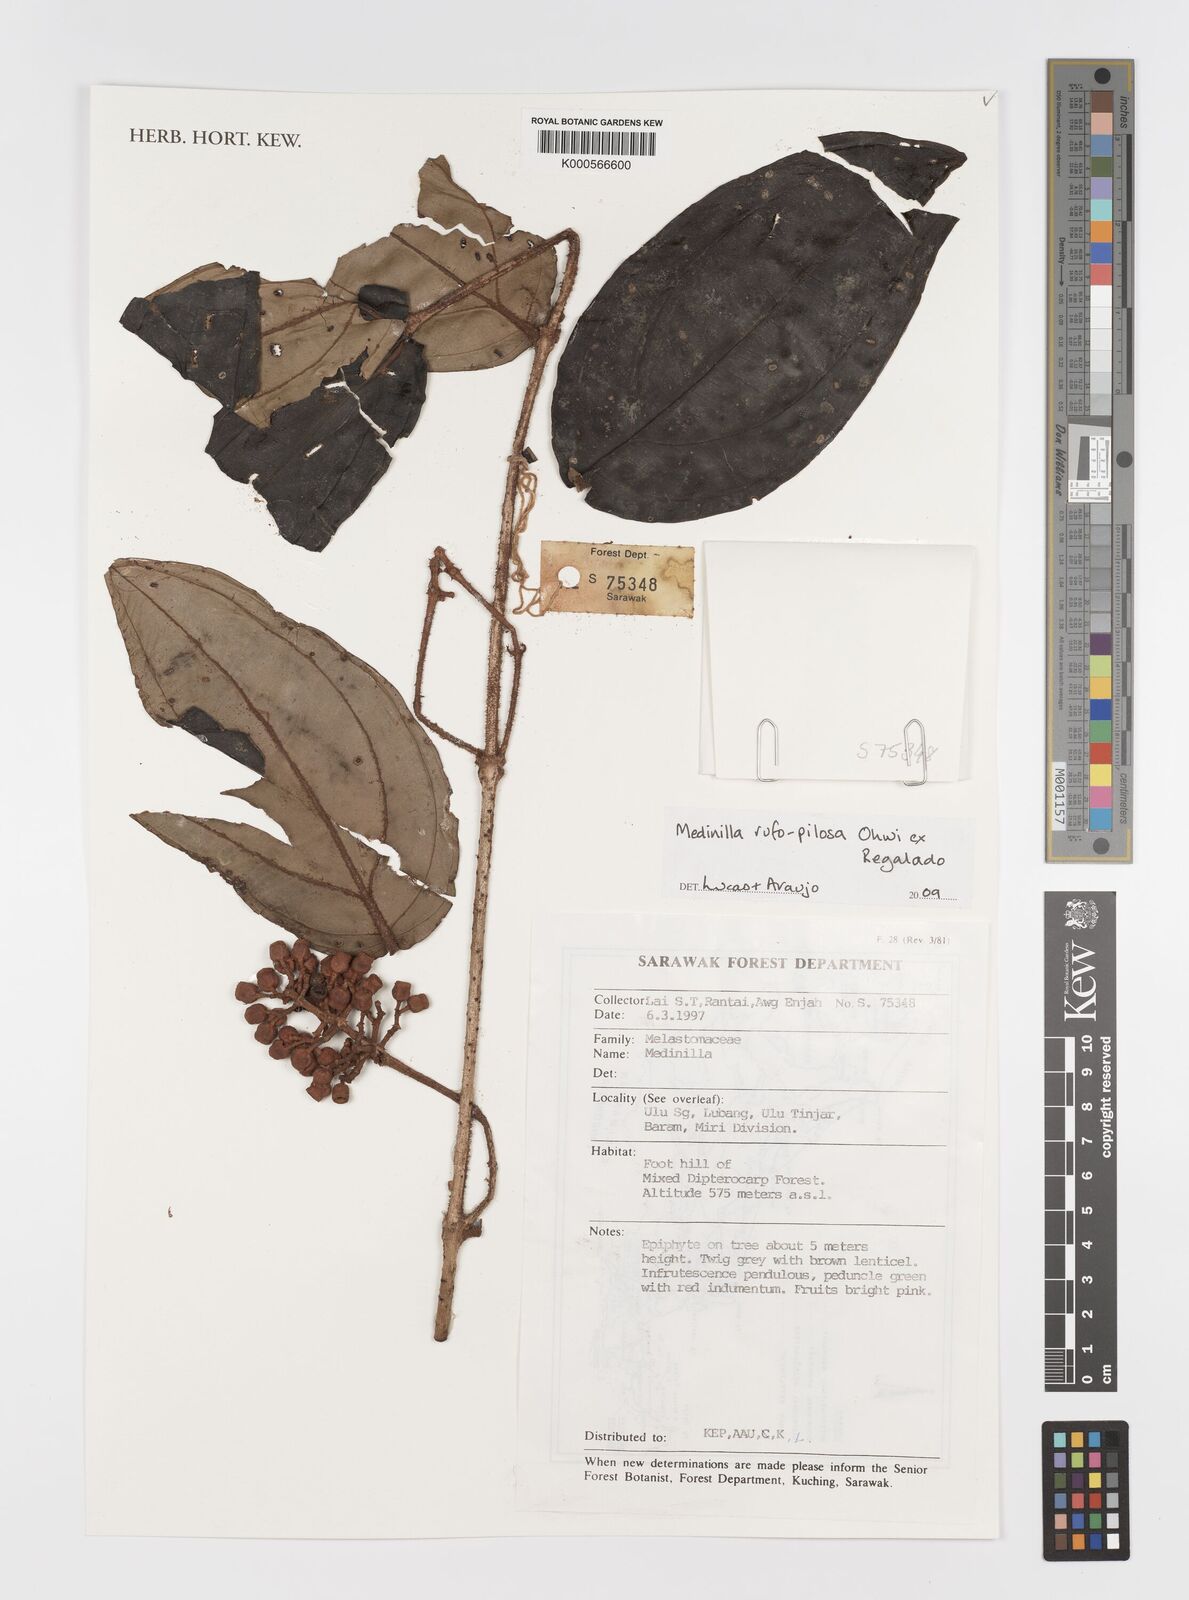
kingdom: Plantae
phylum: Tracheophyta
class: Magnoliopsida
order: Myrtales
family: Melastomataceae
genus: Medinilla
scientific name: Medinilla rufopilosa
